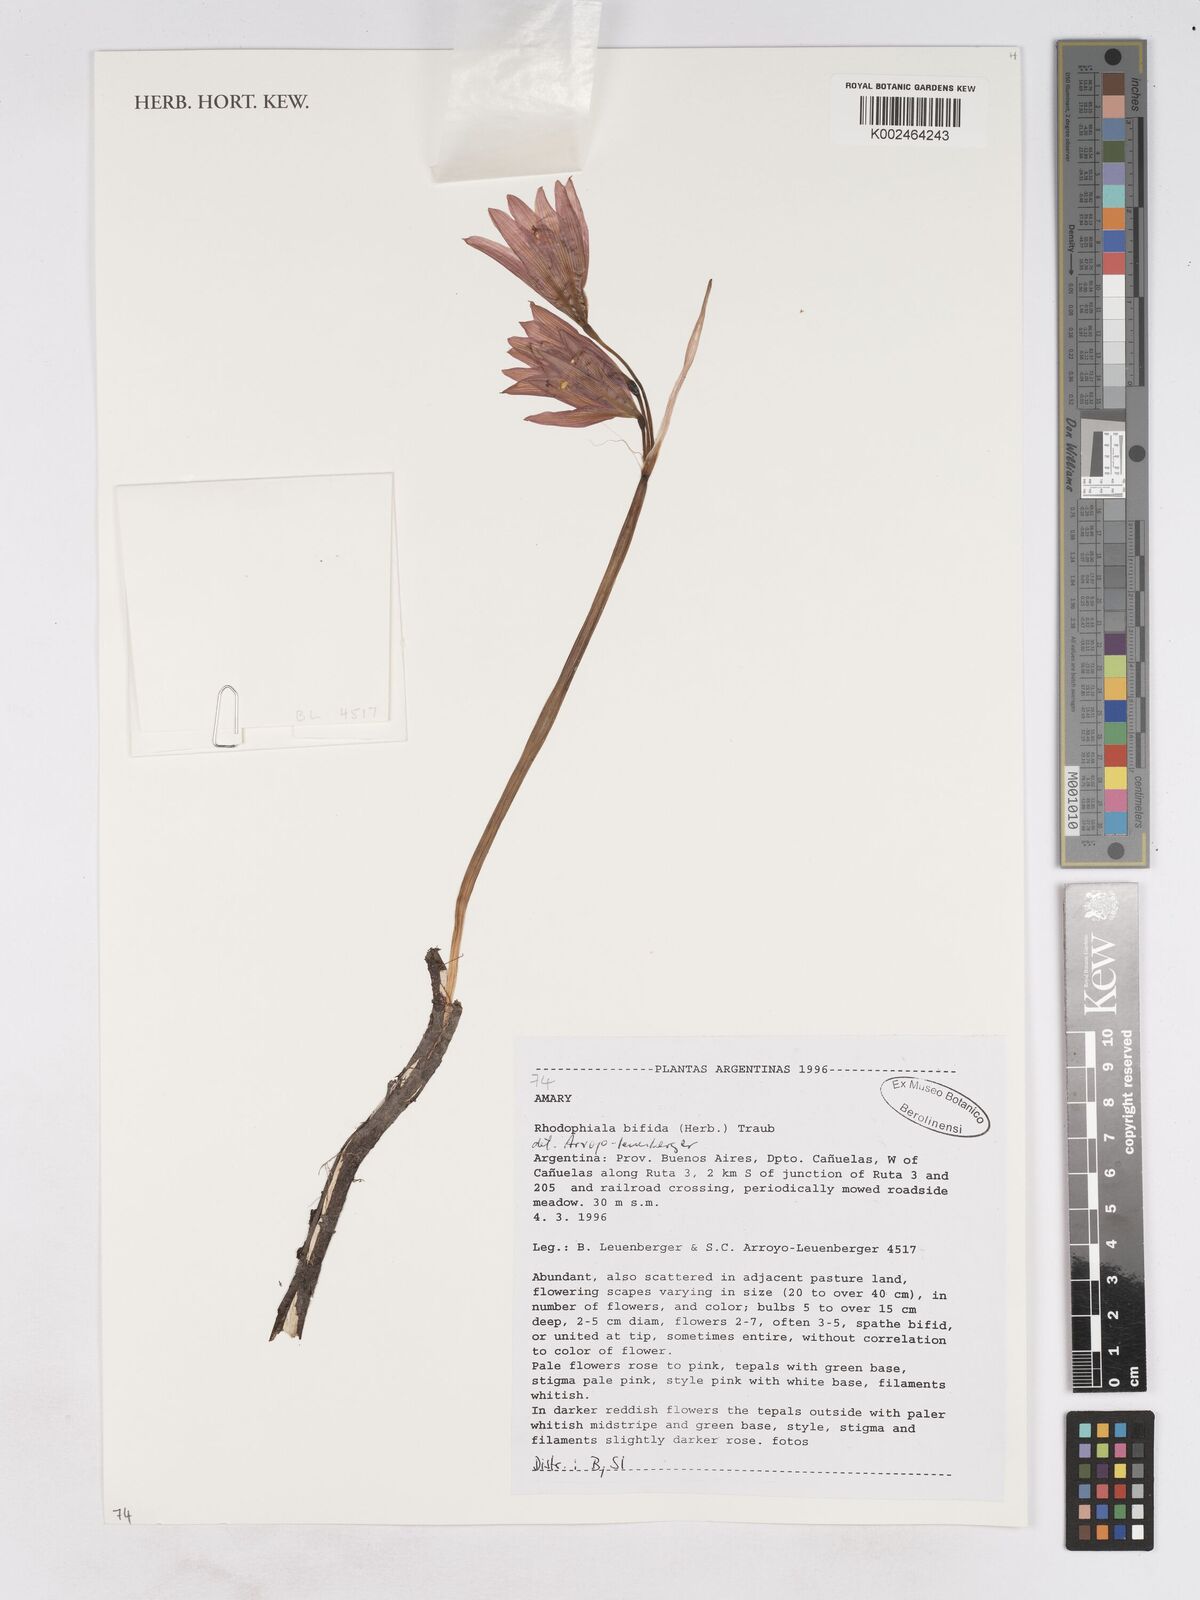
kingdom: Plantae
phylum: Tracheophyta
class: Liliopsida
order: Asparagales
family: Amaryllidaceae
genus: Zephyranthes
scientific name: Zephyranthes bifida
